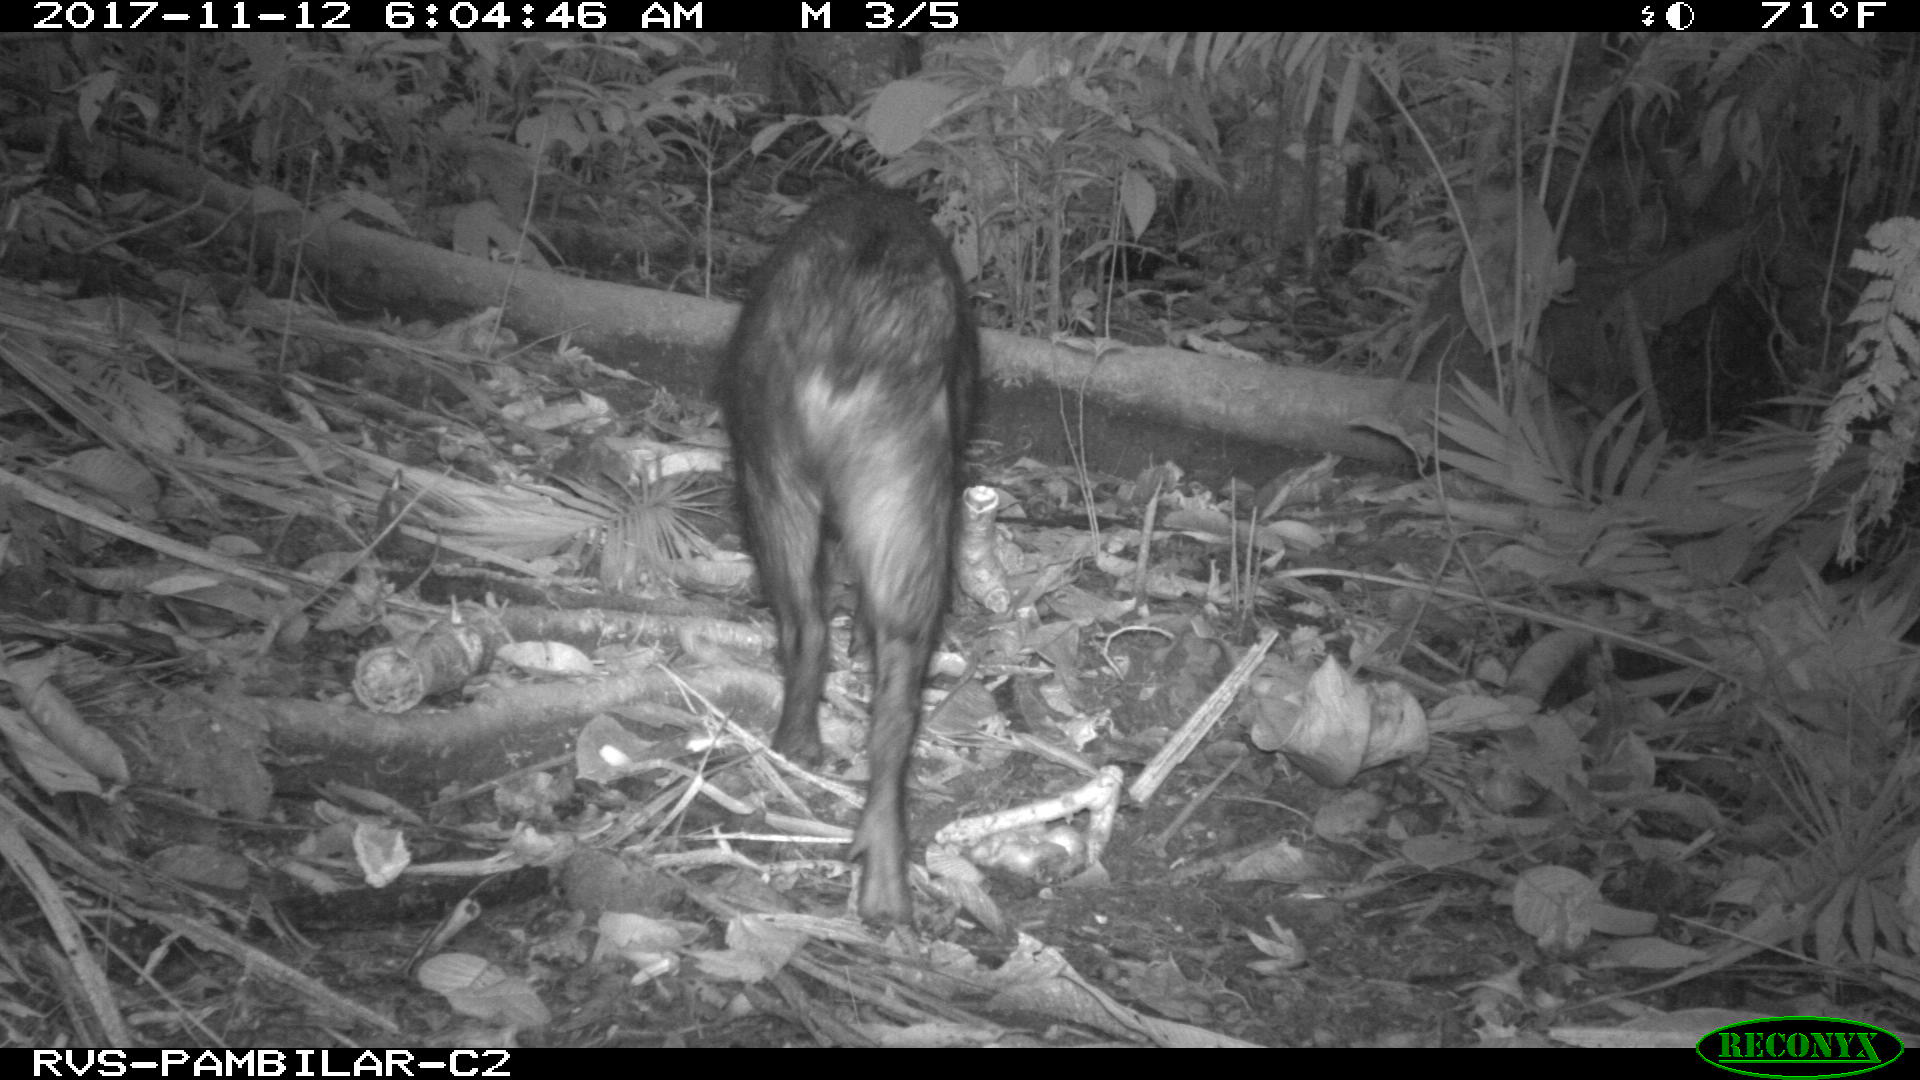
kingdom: Animalia
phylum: Chordata
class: Mammalia
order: Artiodactyla
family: Tayassuidae
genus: Pecari
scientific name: Pecari tajacu
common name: Collared peccary
